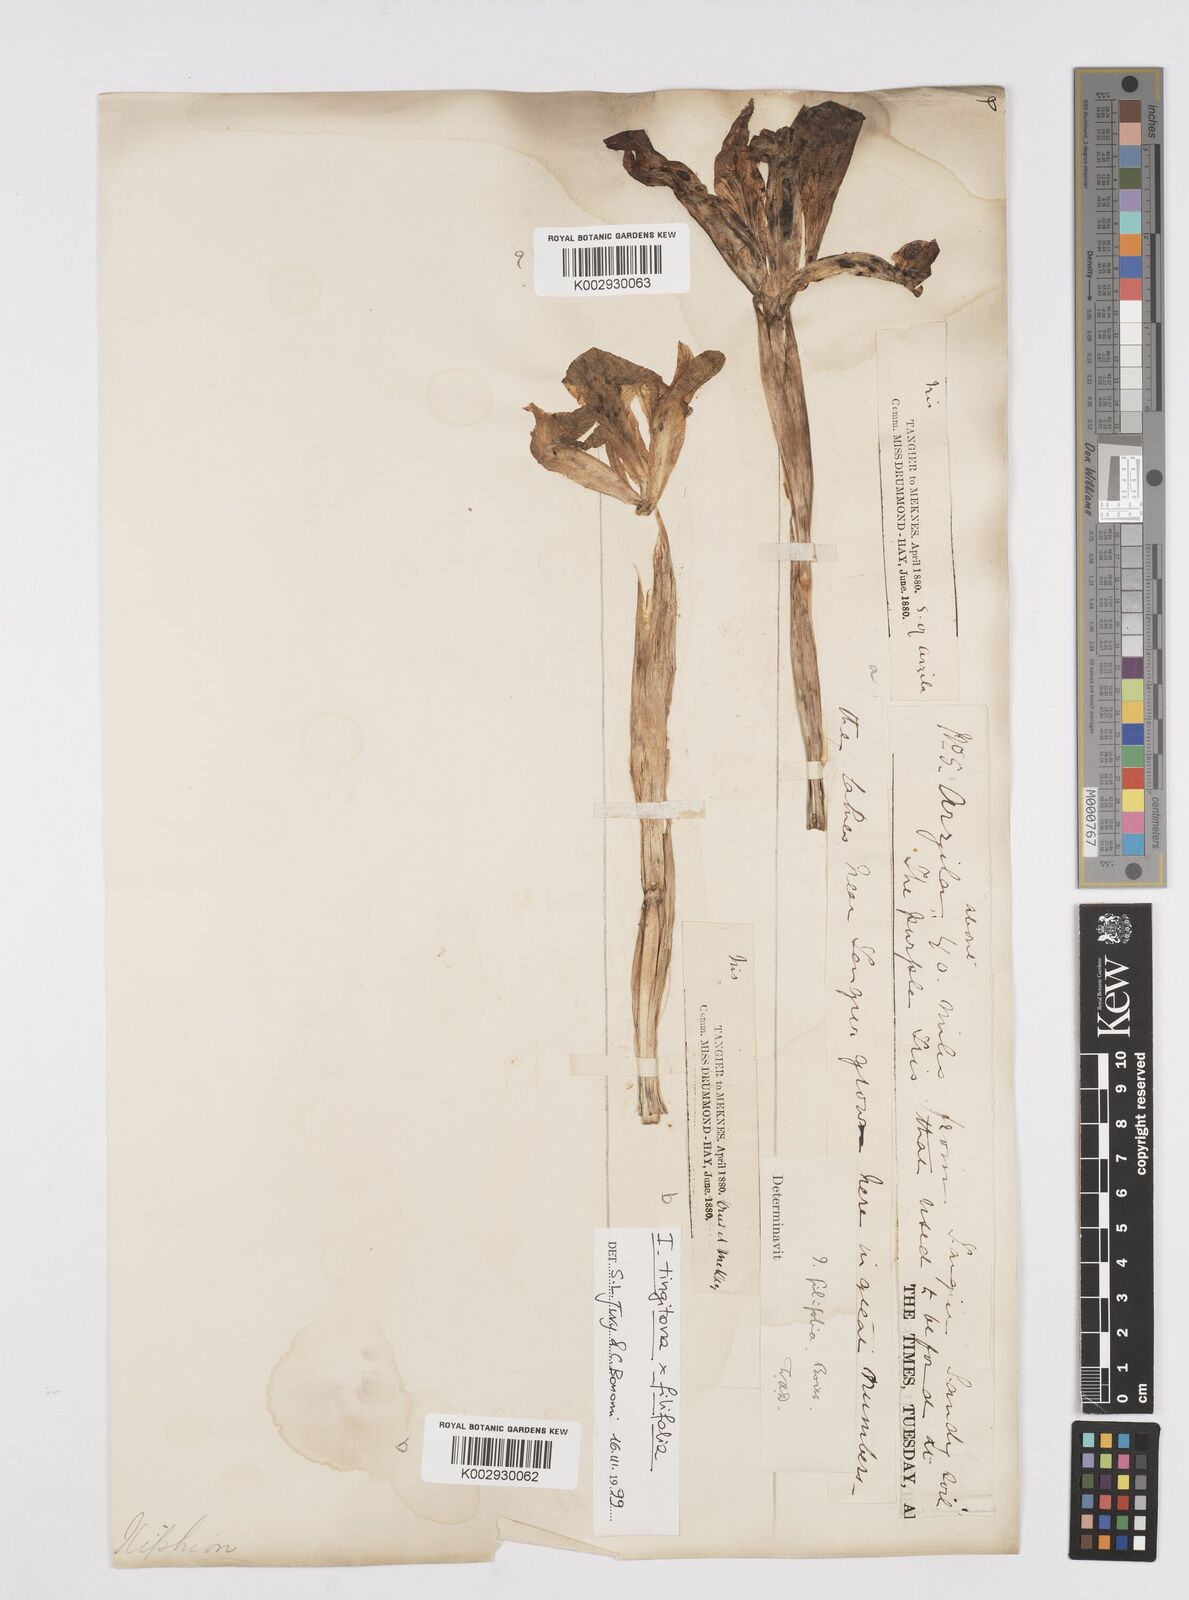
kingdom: Plantae
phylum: Tracheophyta
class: Liliopsida
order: Asparagales
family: Iridaceae
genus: Iris
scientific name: Iris filifolia
